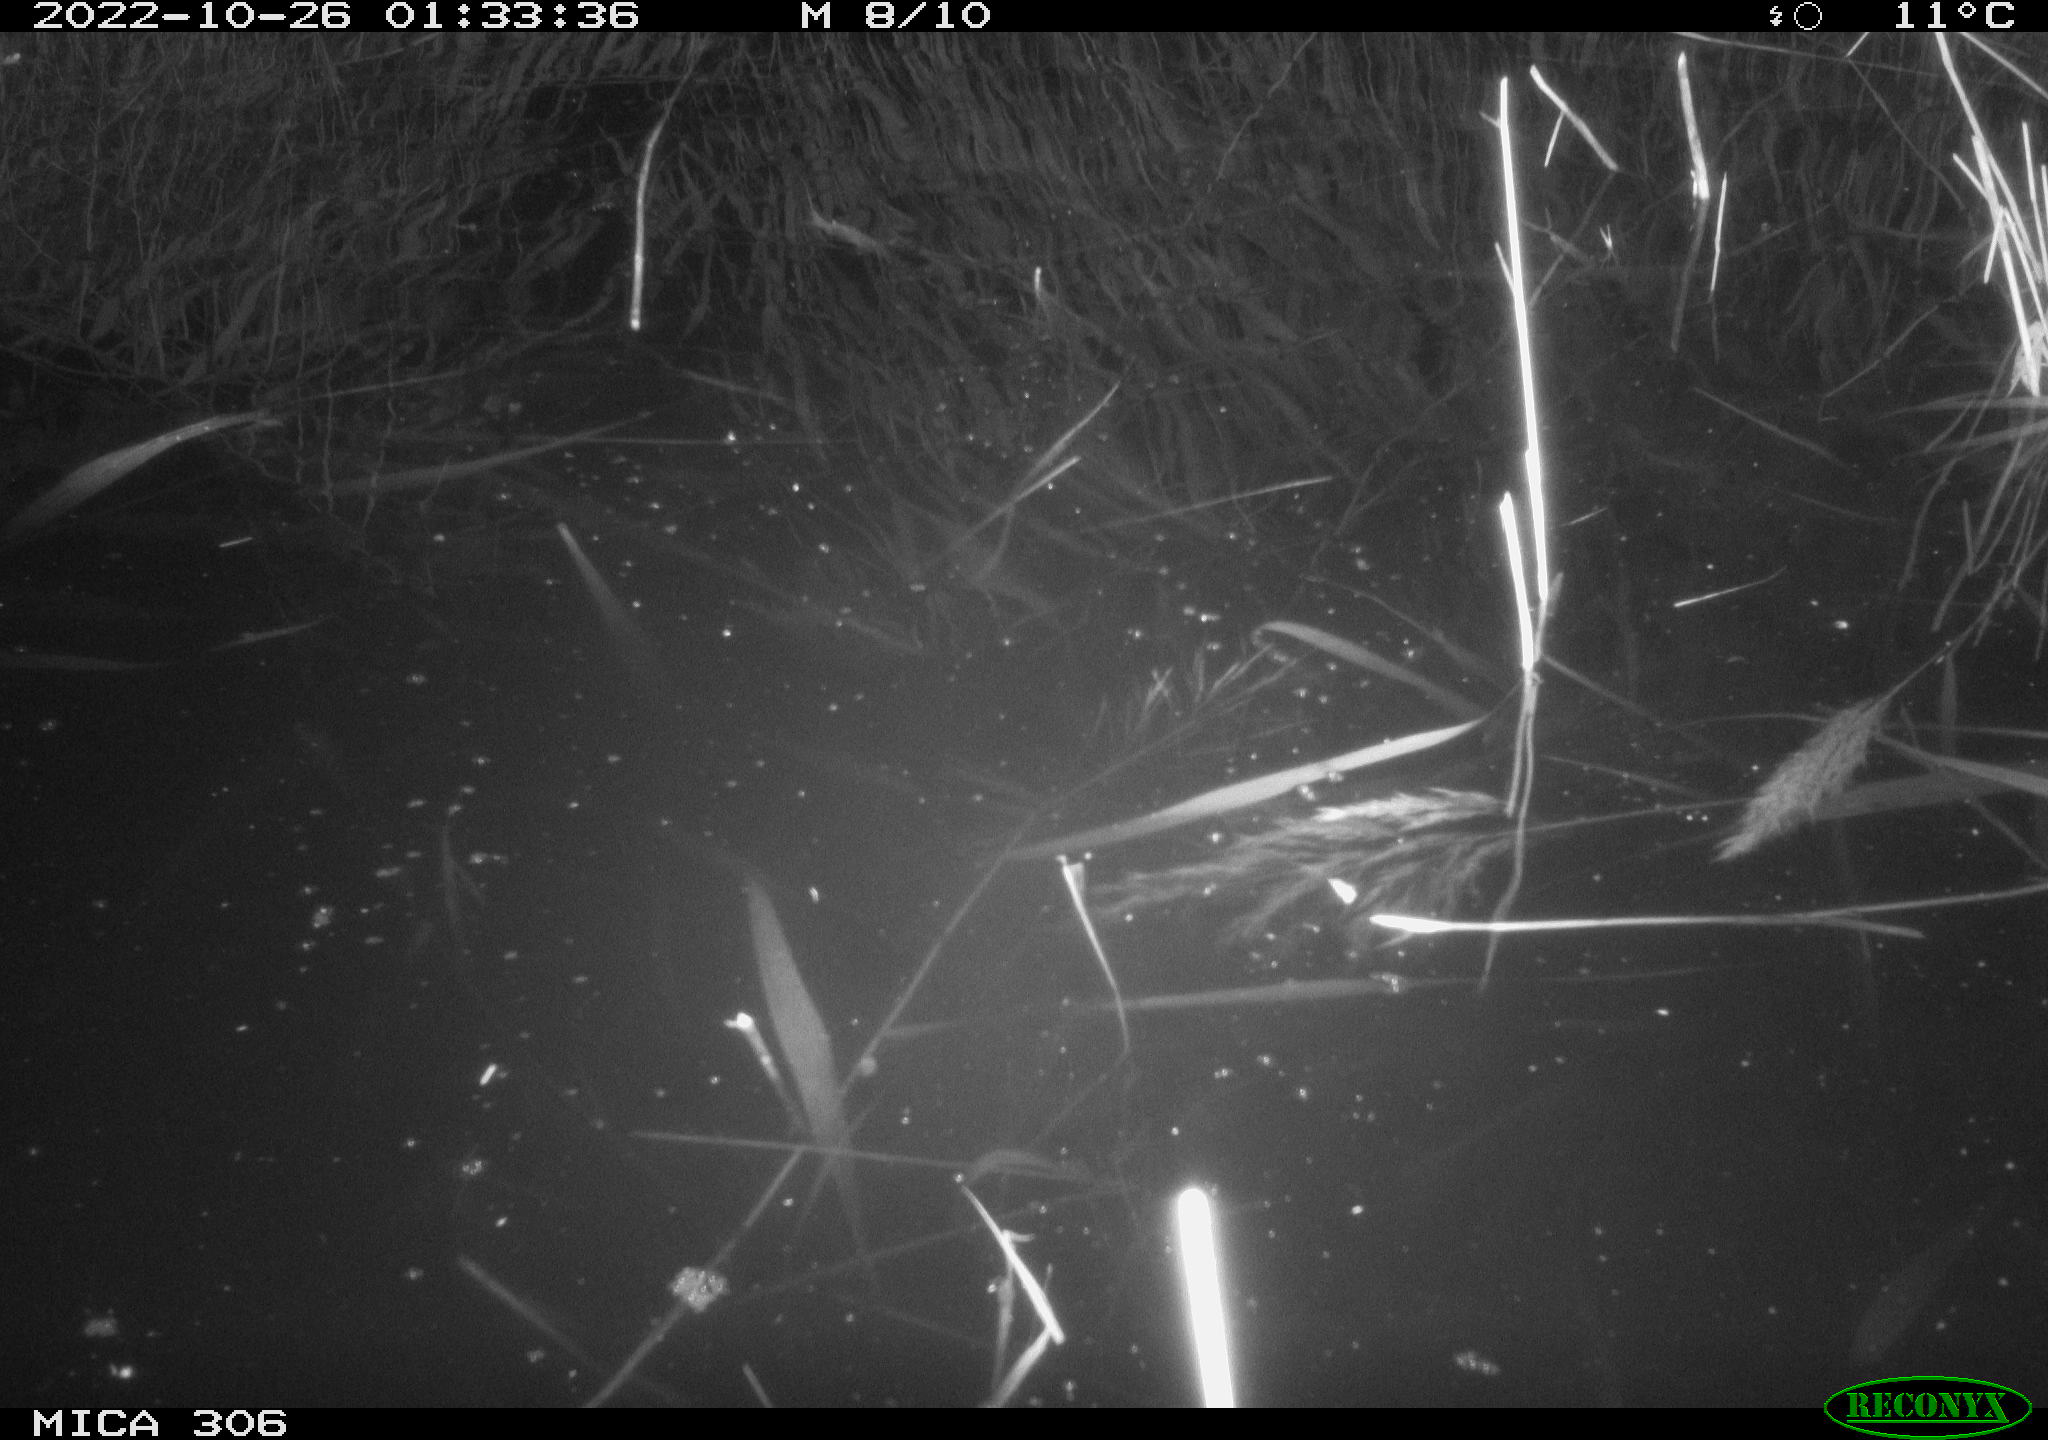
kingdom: Animalia
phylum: Chordata
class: Mammalia
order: Rodentia
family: Cricetidae
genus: Ondatra
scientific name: Ondatra zibethicus
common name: Muskrat
